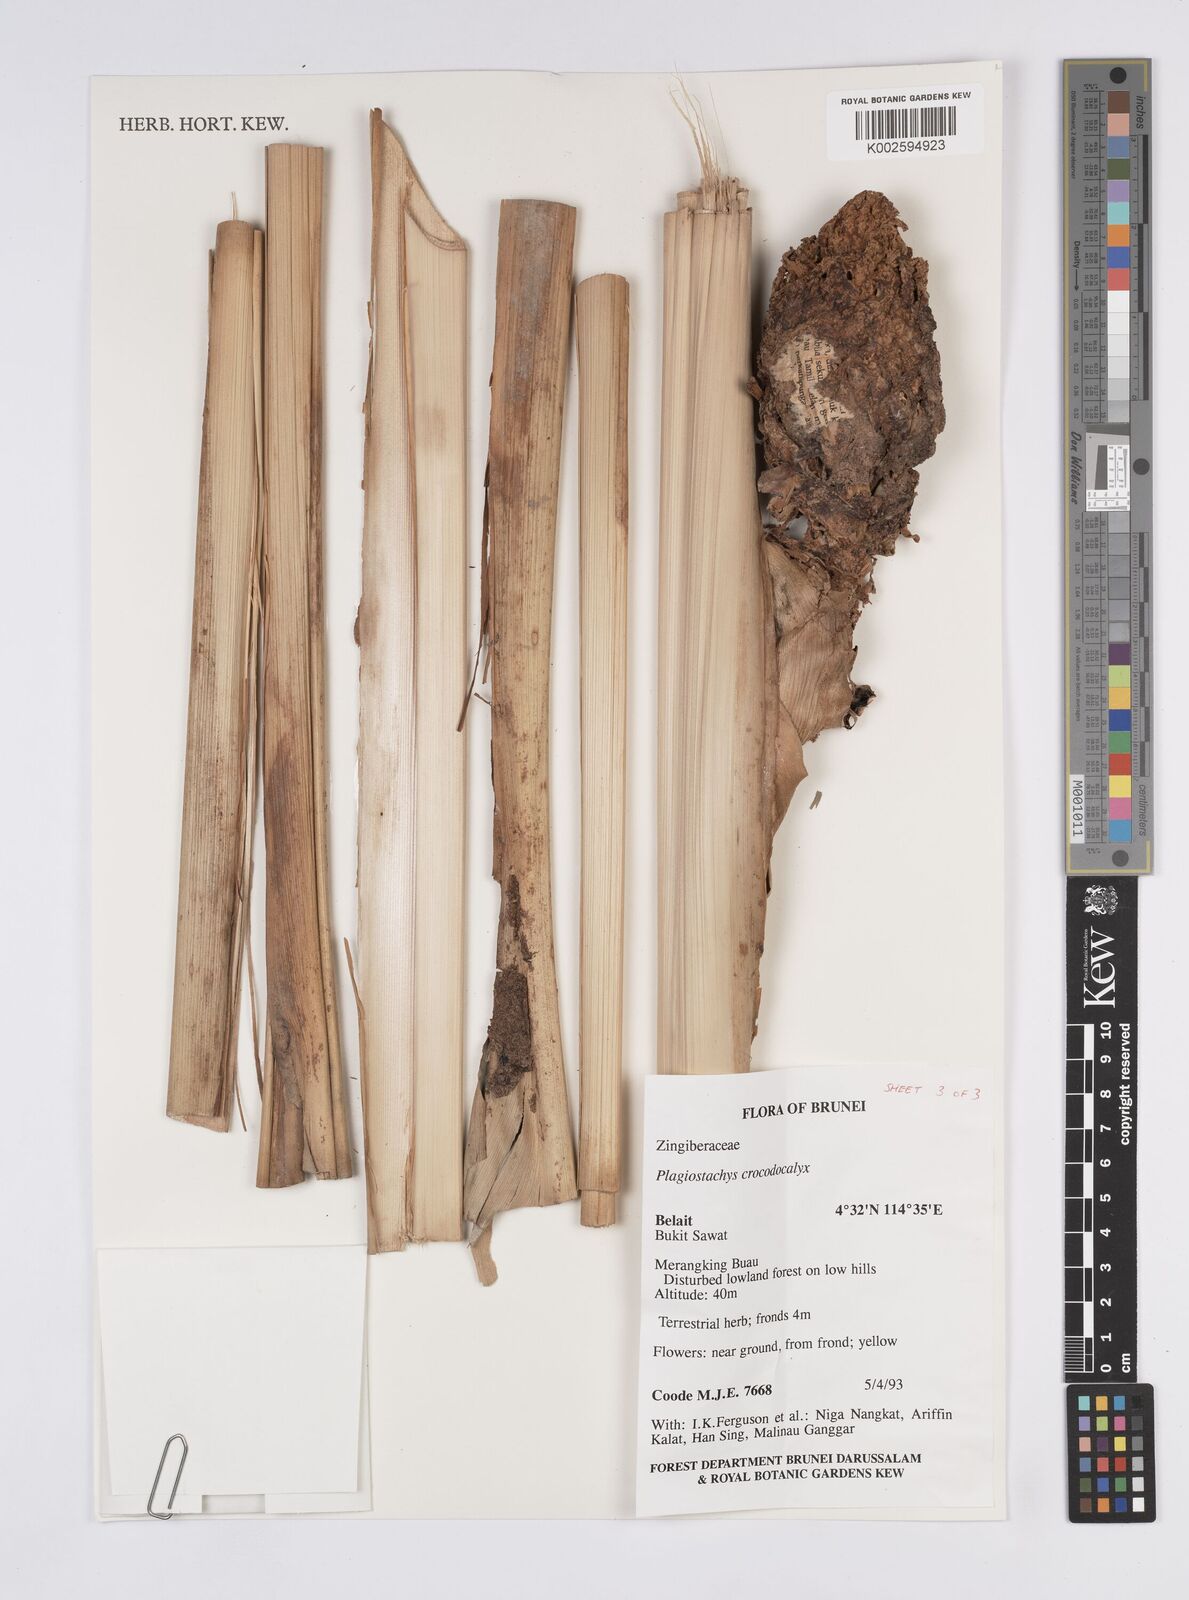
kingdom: Plantae
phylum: Tracheophyta
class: Liliopsida
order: Zingiberales
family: Zingiberaceae
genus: Plagiostachys
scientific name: Plagiostachys crocydocalyx
